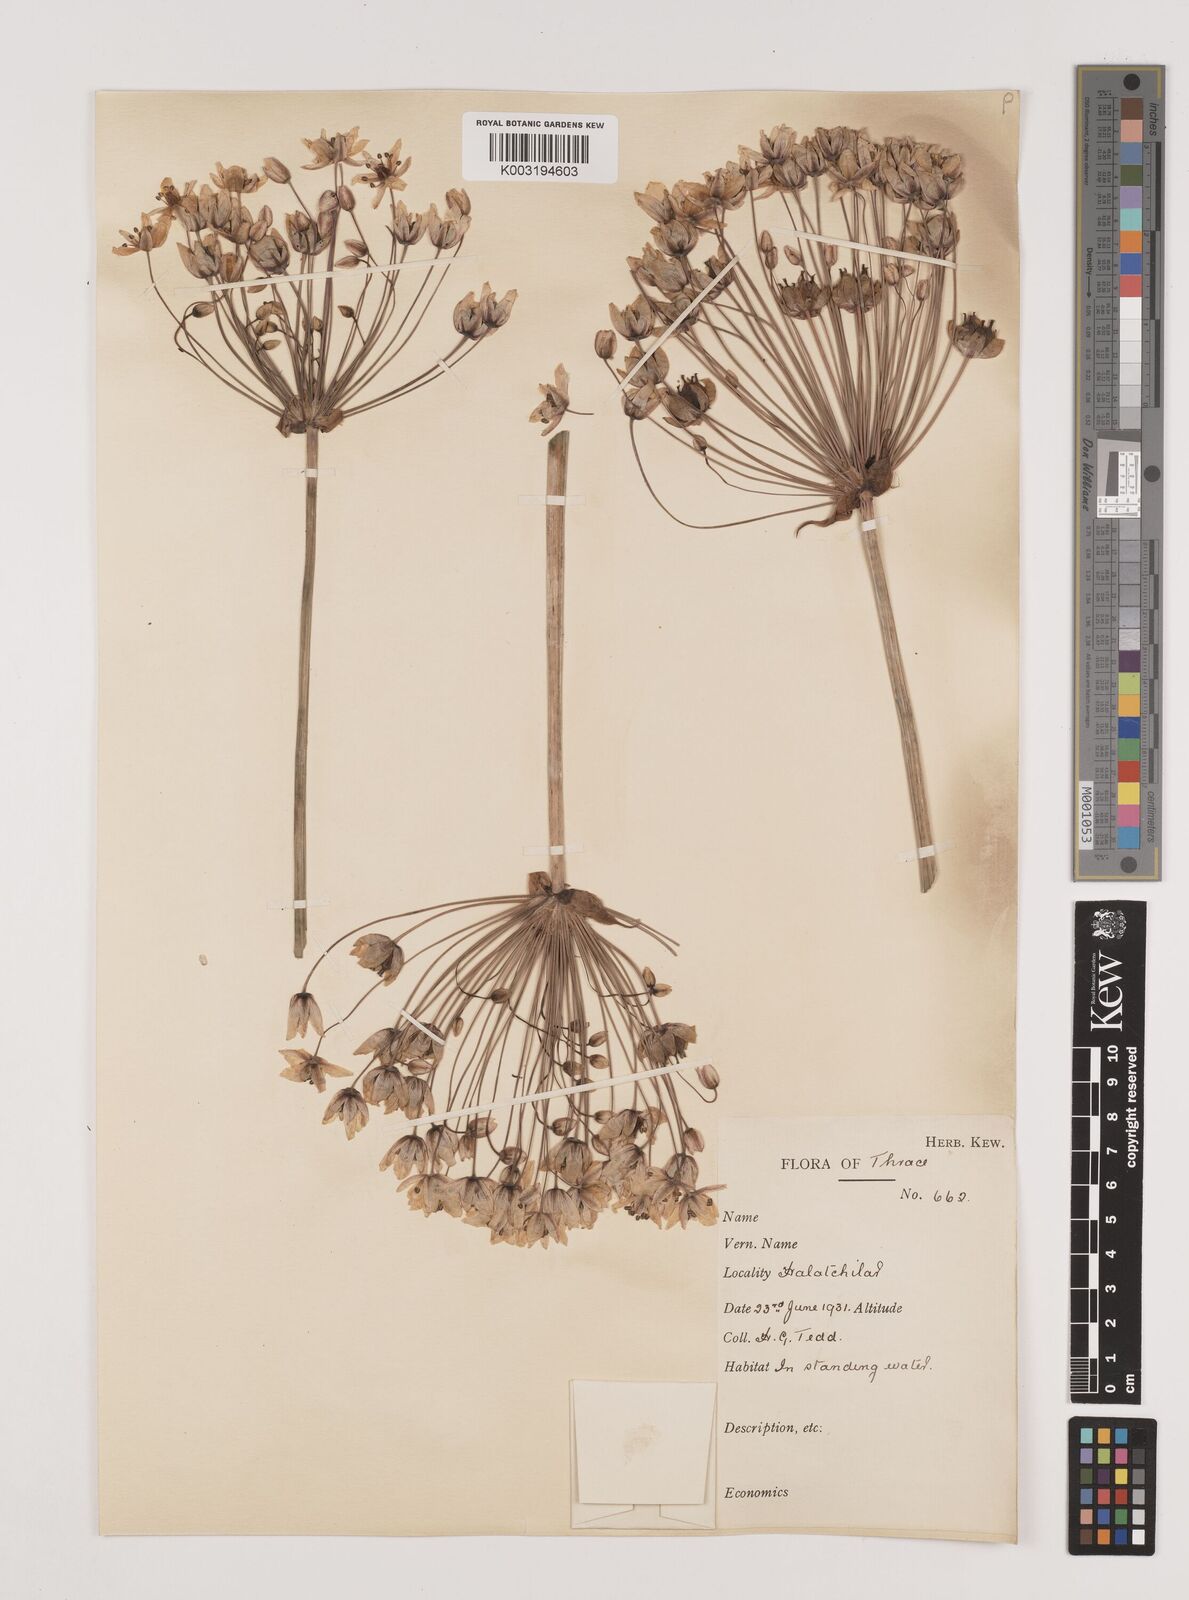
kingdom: Plantae
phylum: Tracheophyta
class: Liliopsida
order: Alismatales
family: Butomaceae
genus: Butomus
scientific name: Butomus umbellatus
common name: Flowering-rush
